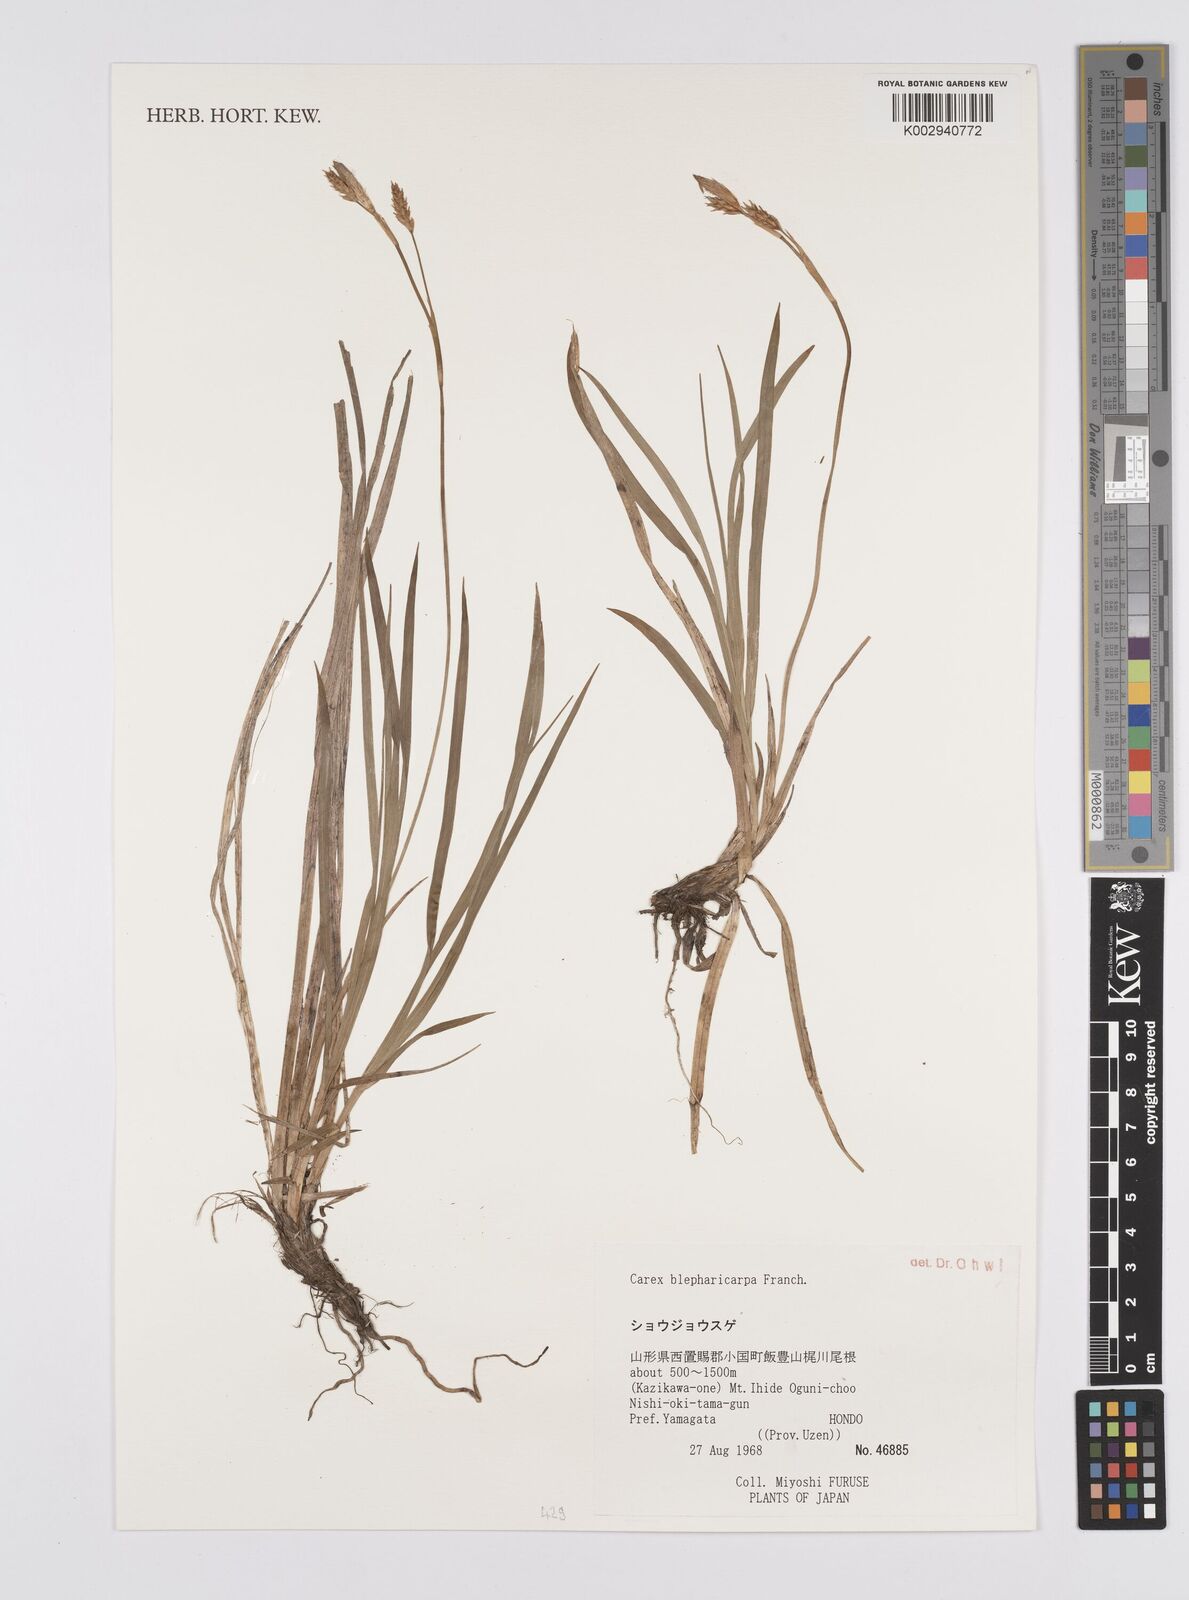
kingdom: Plantae
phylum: Tracheophyta
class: Liliopsida
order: Poales
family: Cyperaceae
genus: Carex
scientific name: Carex blepharicarpa
